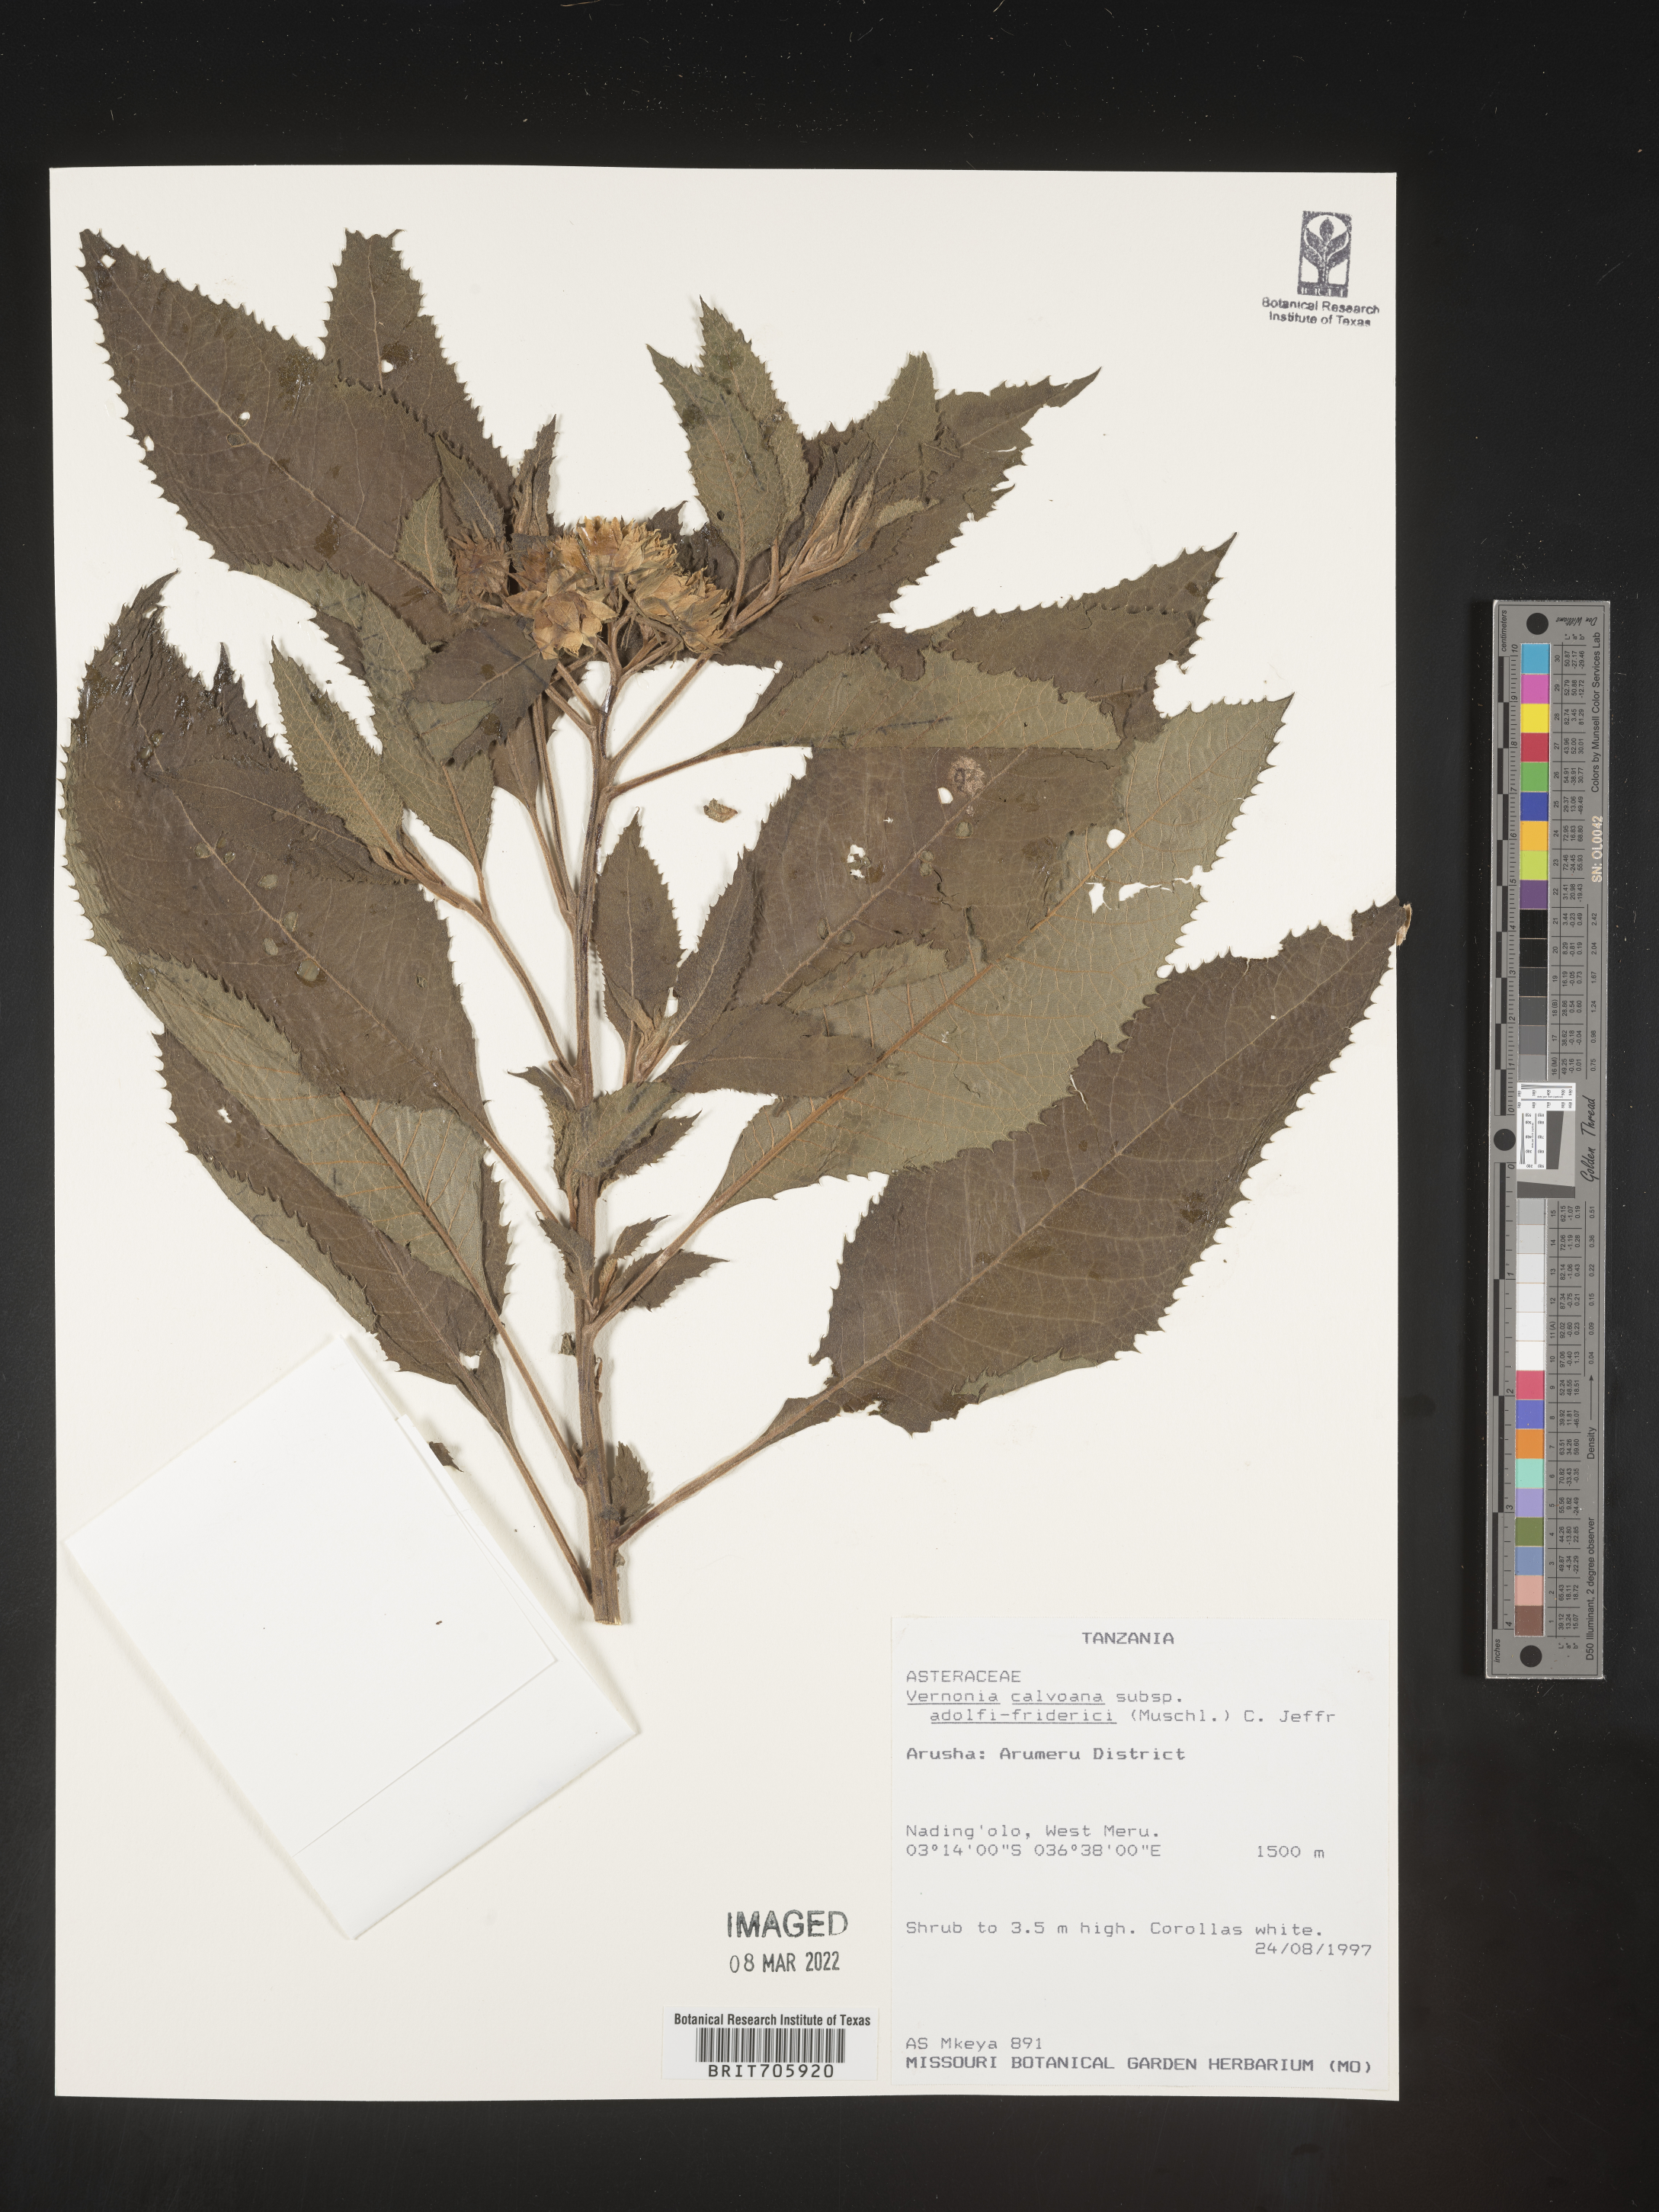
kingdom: Plantae
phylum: Tracheophyta
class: Magnoliopsida
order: Asterales
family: Asteraceae
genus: Vernonia
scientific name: Vernonia
